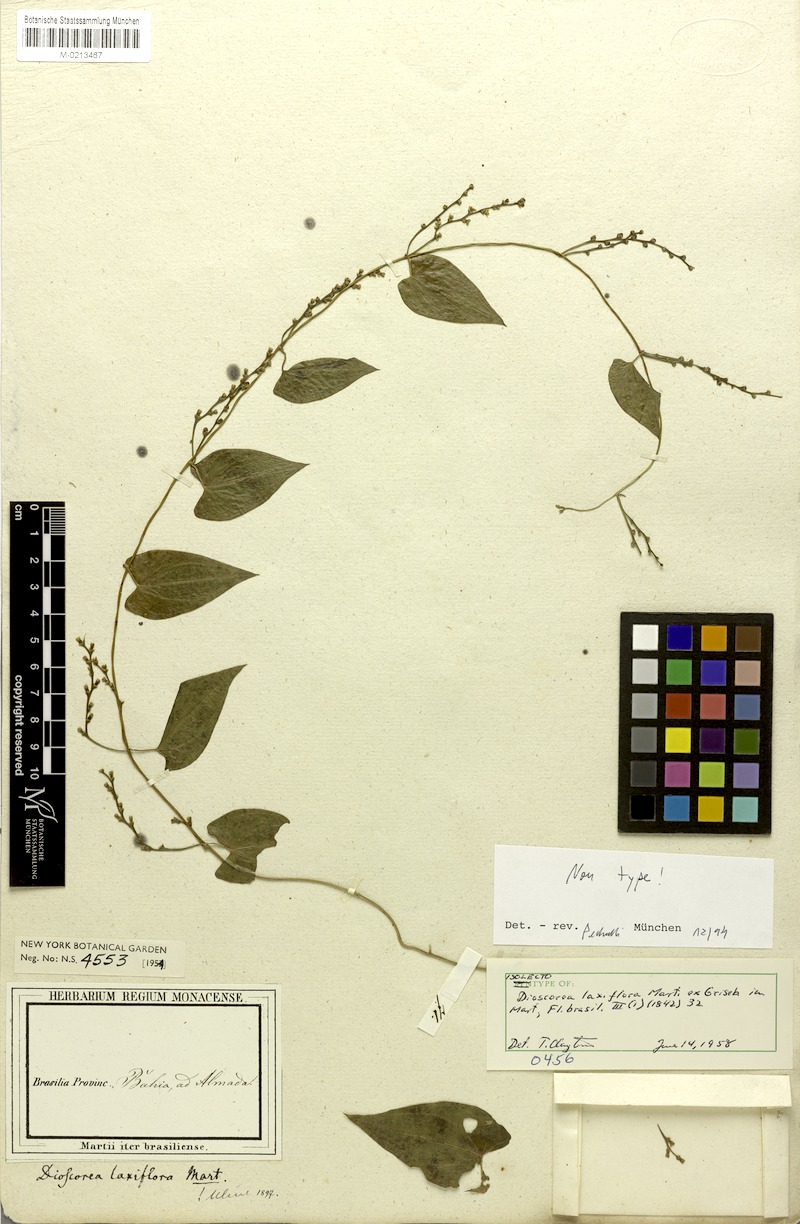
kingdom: Plantae
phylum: Tracheophyta
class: Liliopsida
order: Dioscoreales
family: Dioscoreaceae
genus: Dioscorea
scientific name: Dioscorea laxiflora
